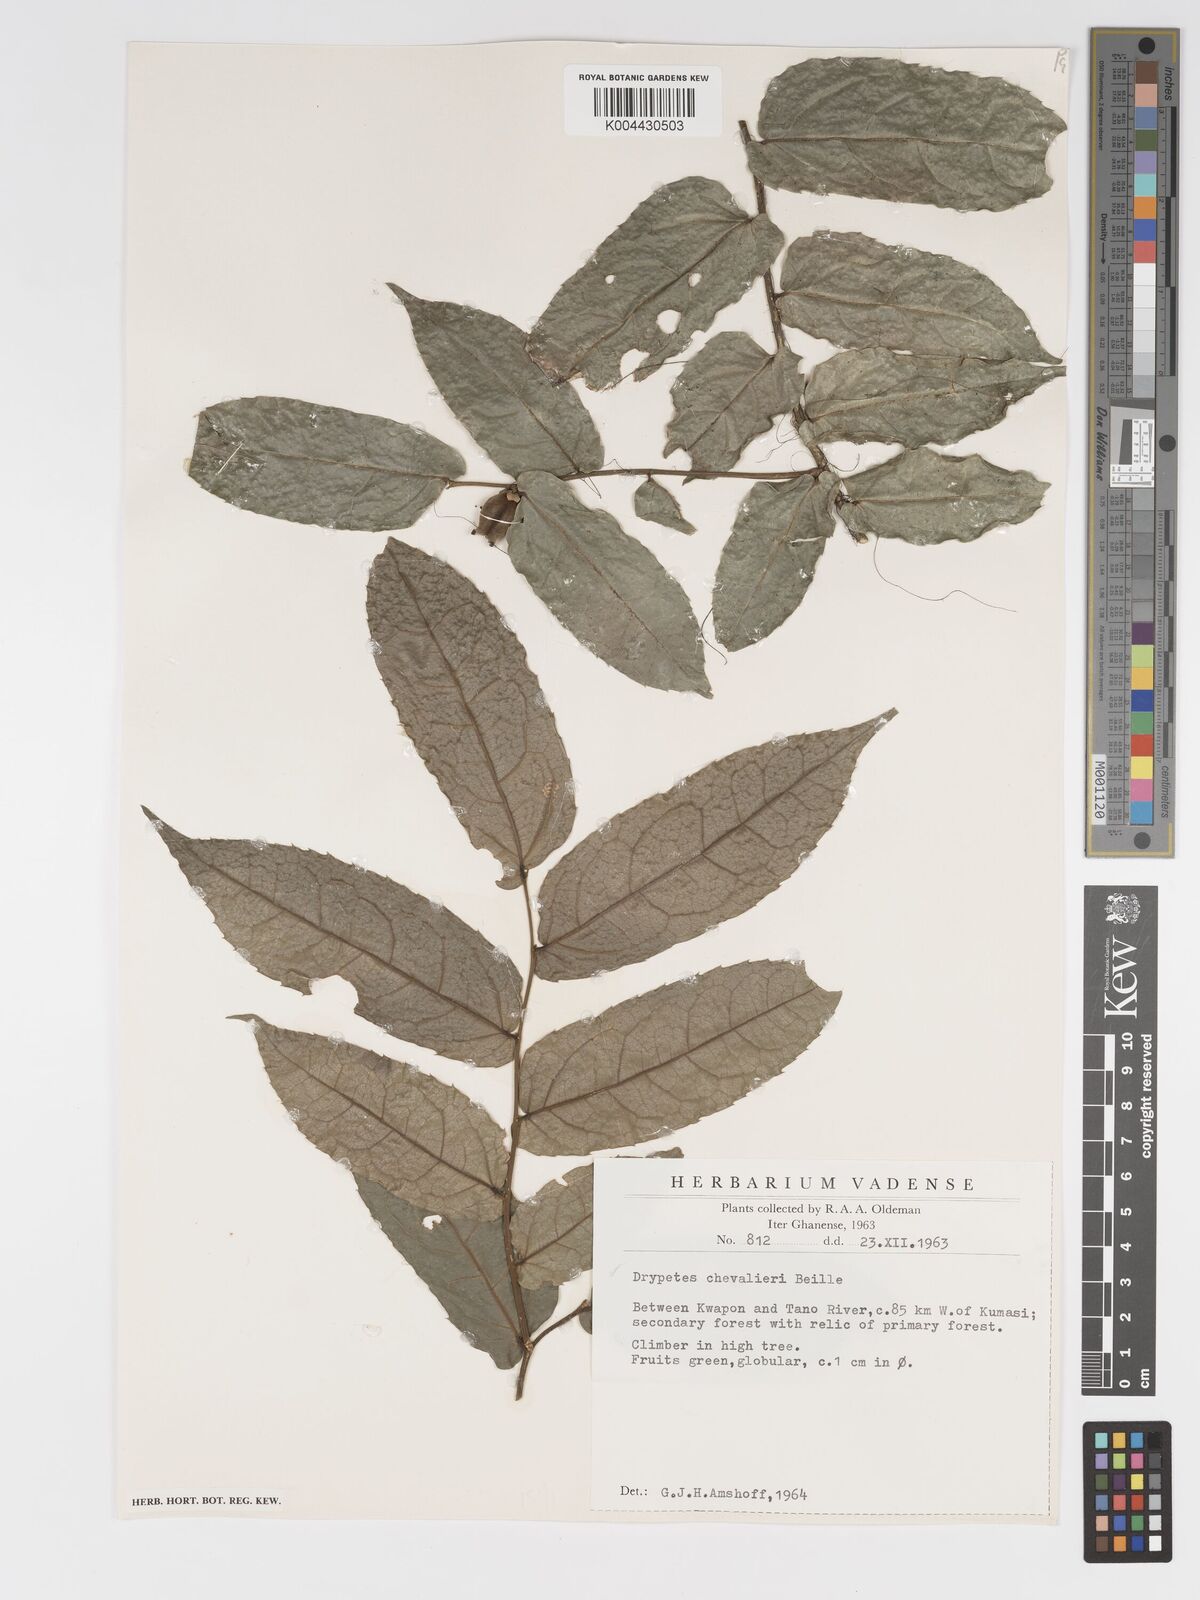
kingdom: Plantae
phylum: Tracheophyta
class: Magnoliopsida
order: Malpighiales
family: Putranjivaceae
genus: Drypetes
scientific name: Drypetes chevalieri
